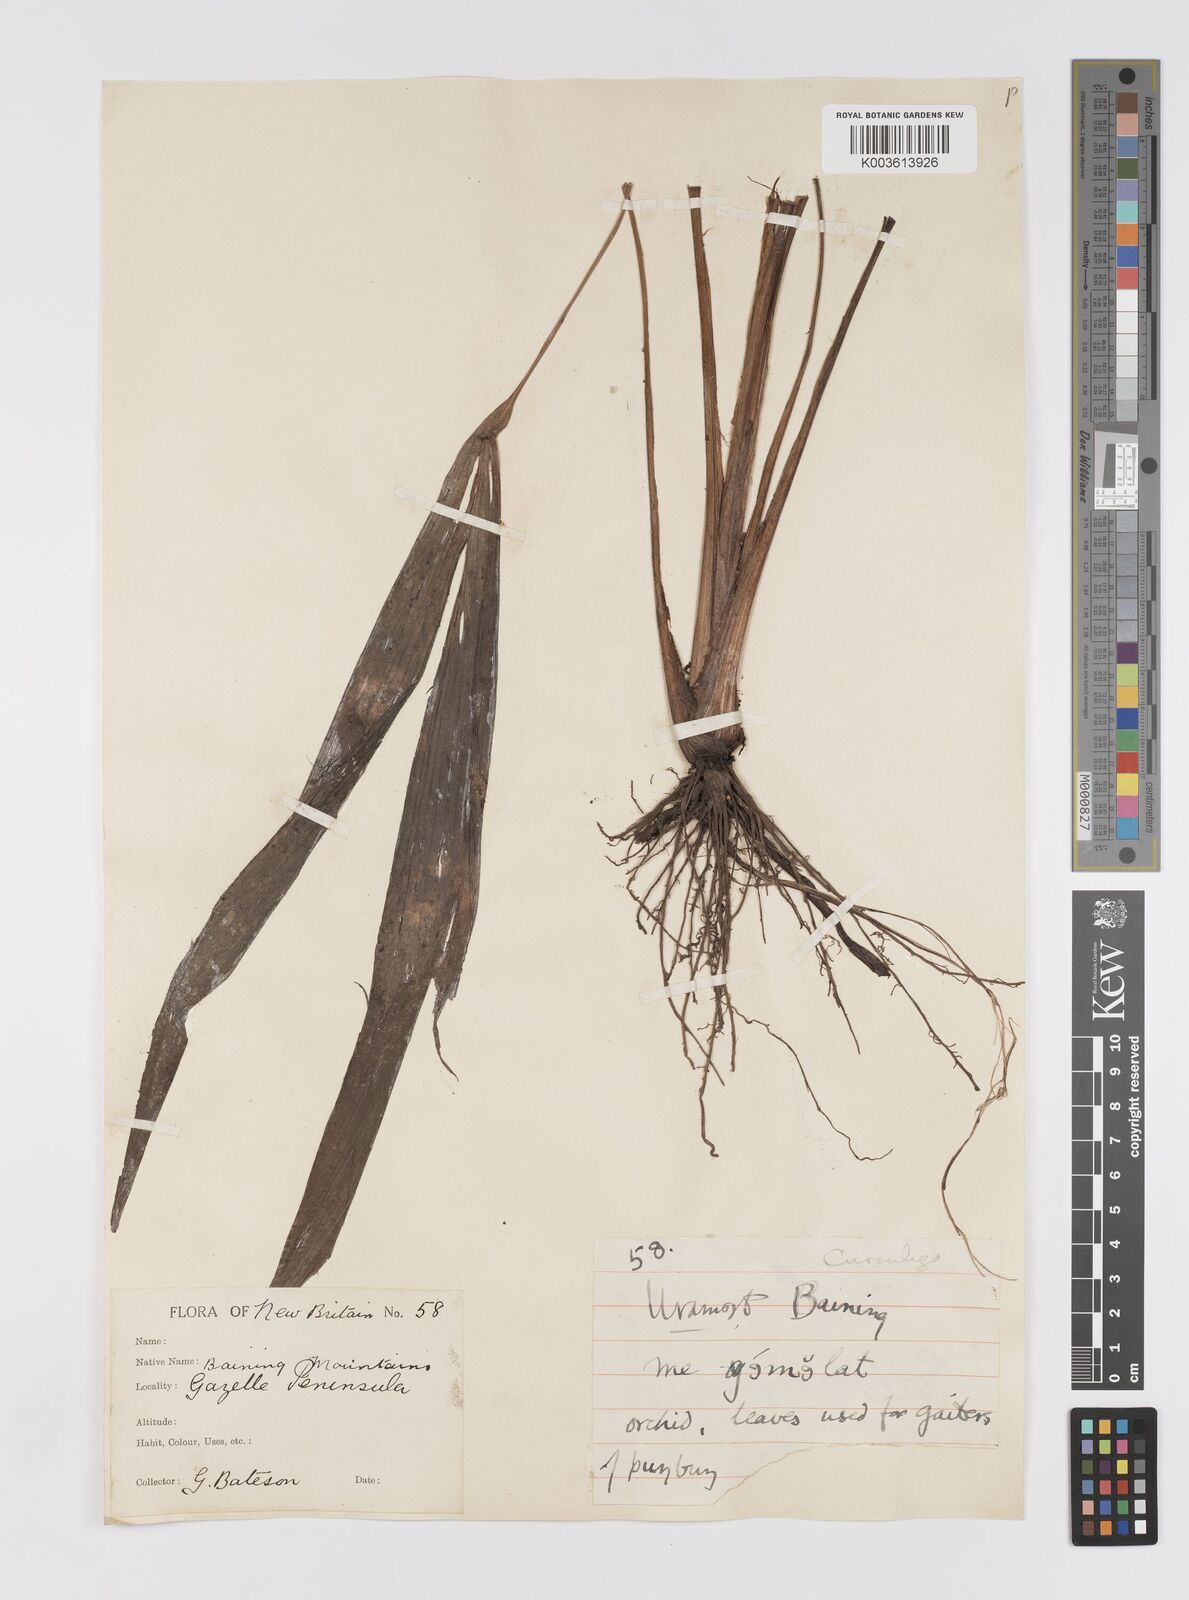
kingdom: Plantae
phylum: Tracheophyta
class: Liliopsida
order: Asparagales
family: Hypoxidaceae
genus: Curculigo
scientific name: Curculigo
